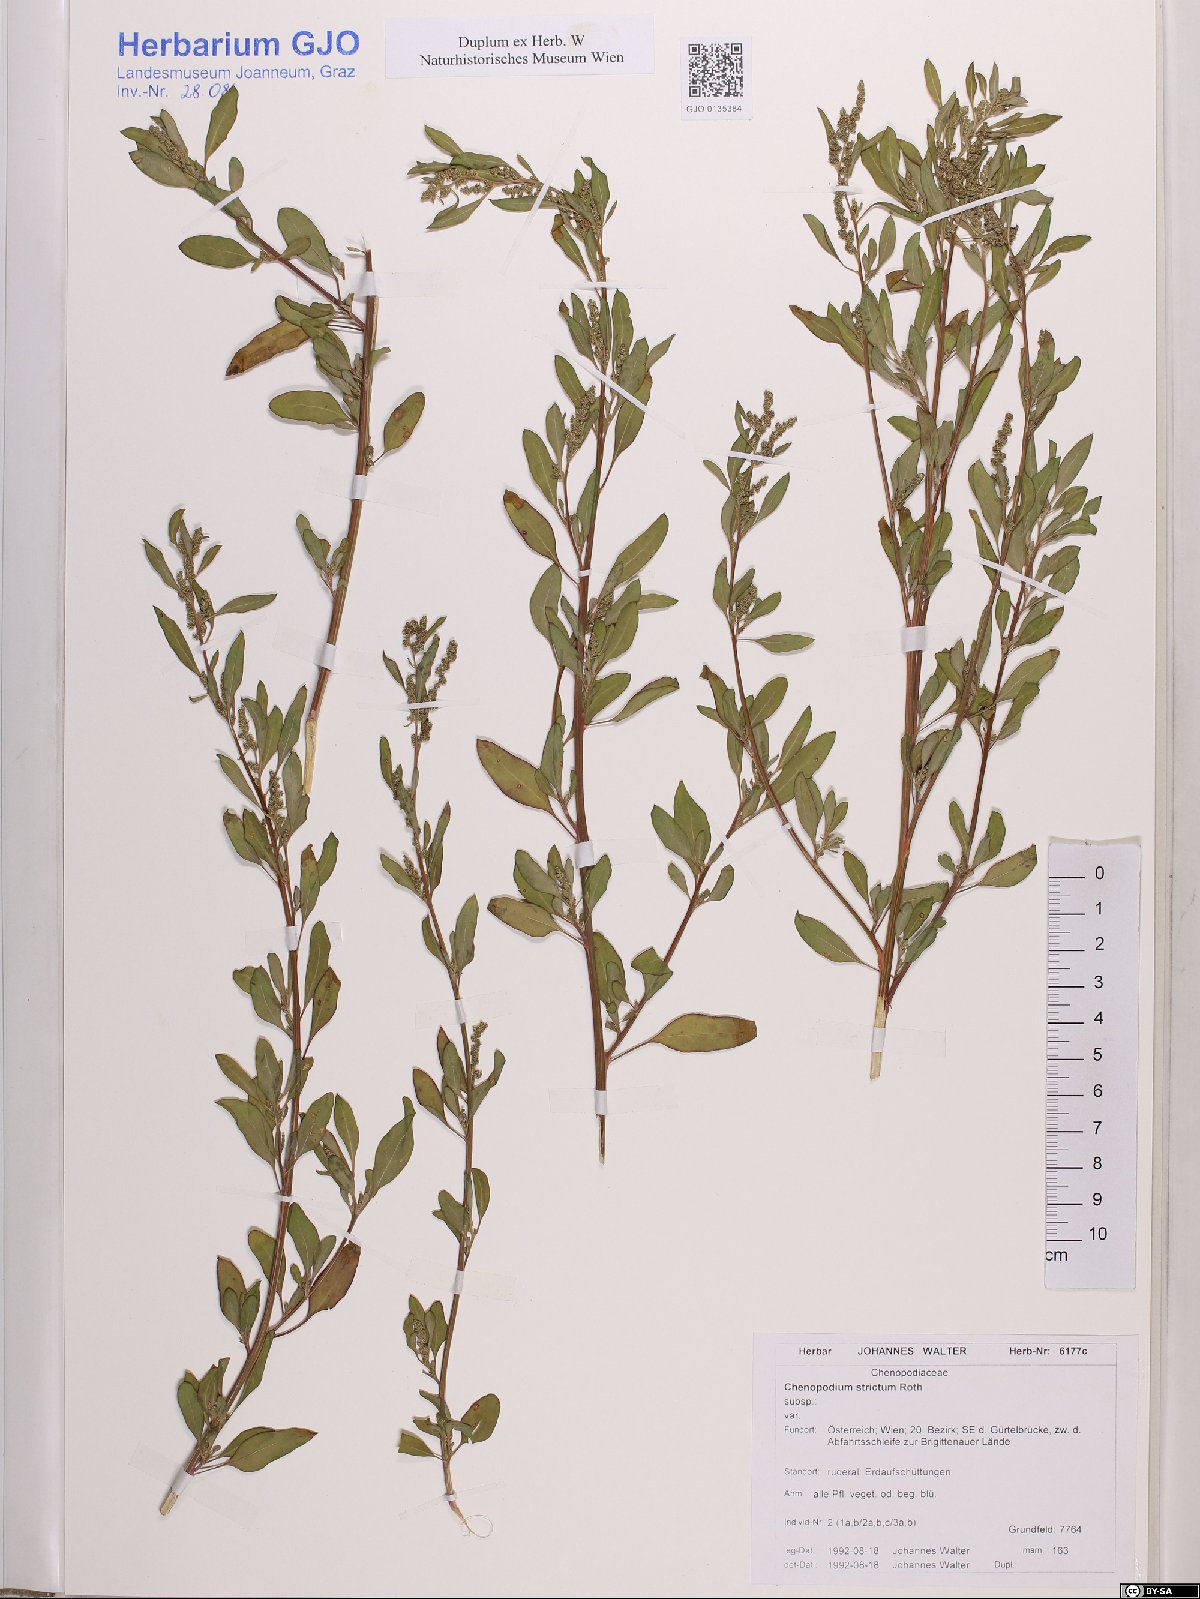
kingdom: Plantae
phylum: Tracheophyta
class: Magnoliopsida
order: Caryophyllales
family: Amaranthaceae
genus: Chenopodium
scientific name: Chenopodium album
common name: Fat-hen
